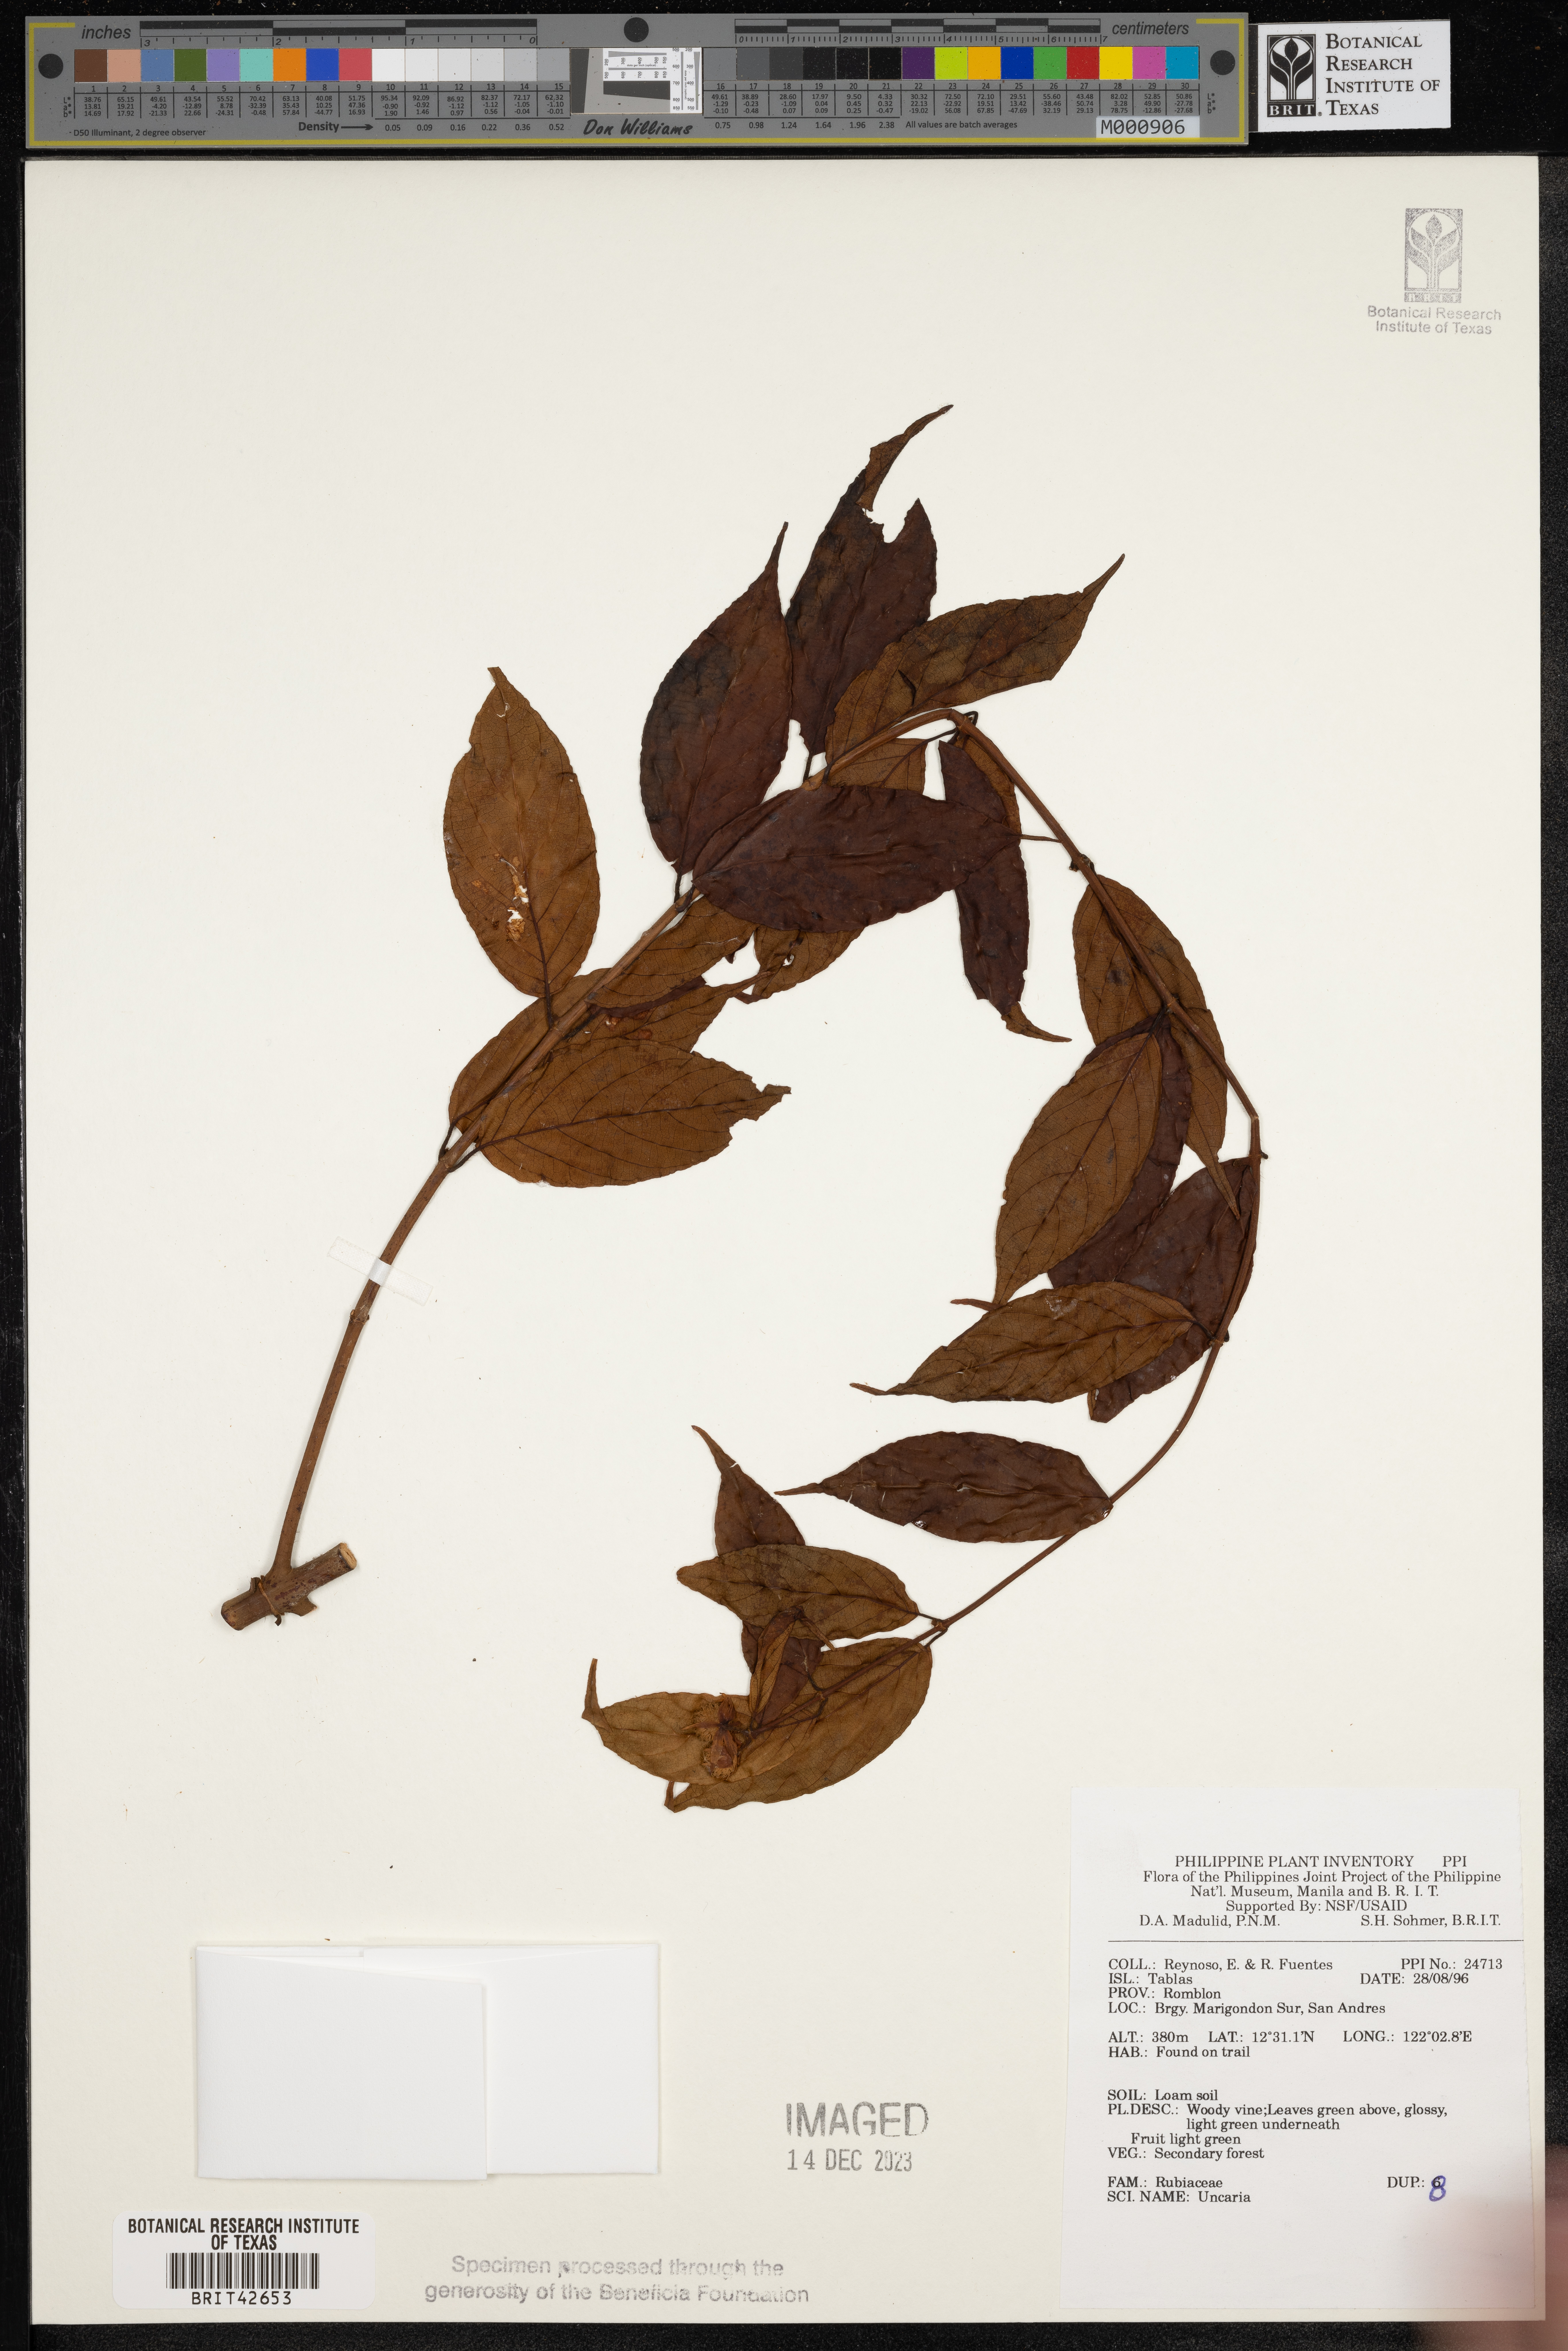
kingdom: Plantae
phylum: Tracheophyta
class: Magnoliopsida
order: Gentianales
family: Rubiaceae
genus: Uncaria
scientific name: Uncaria
